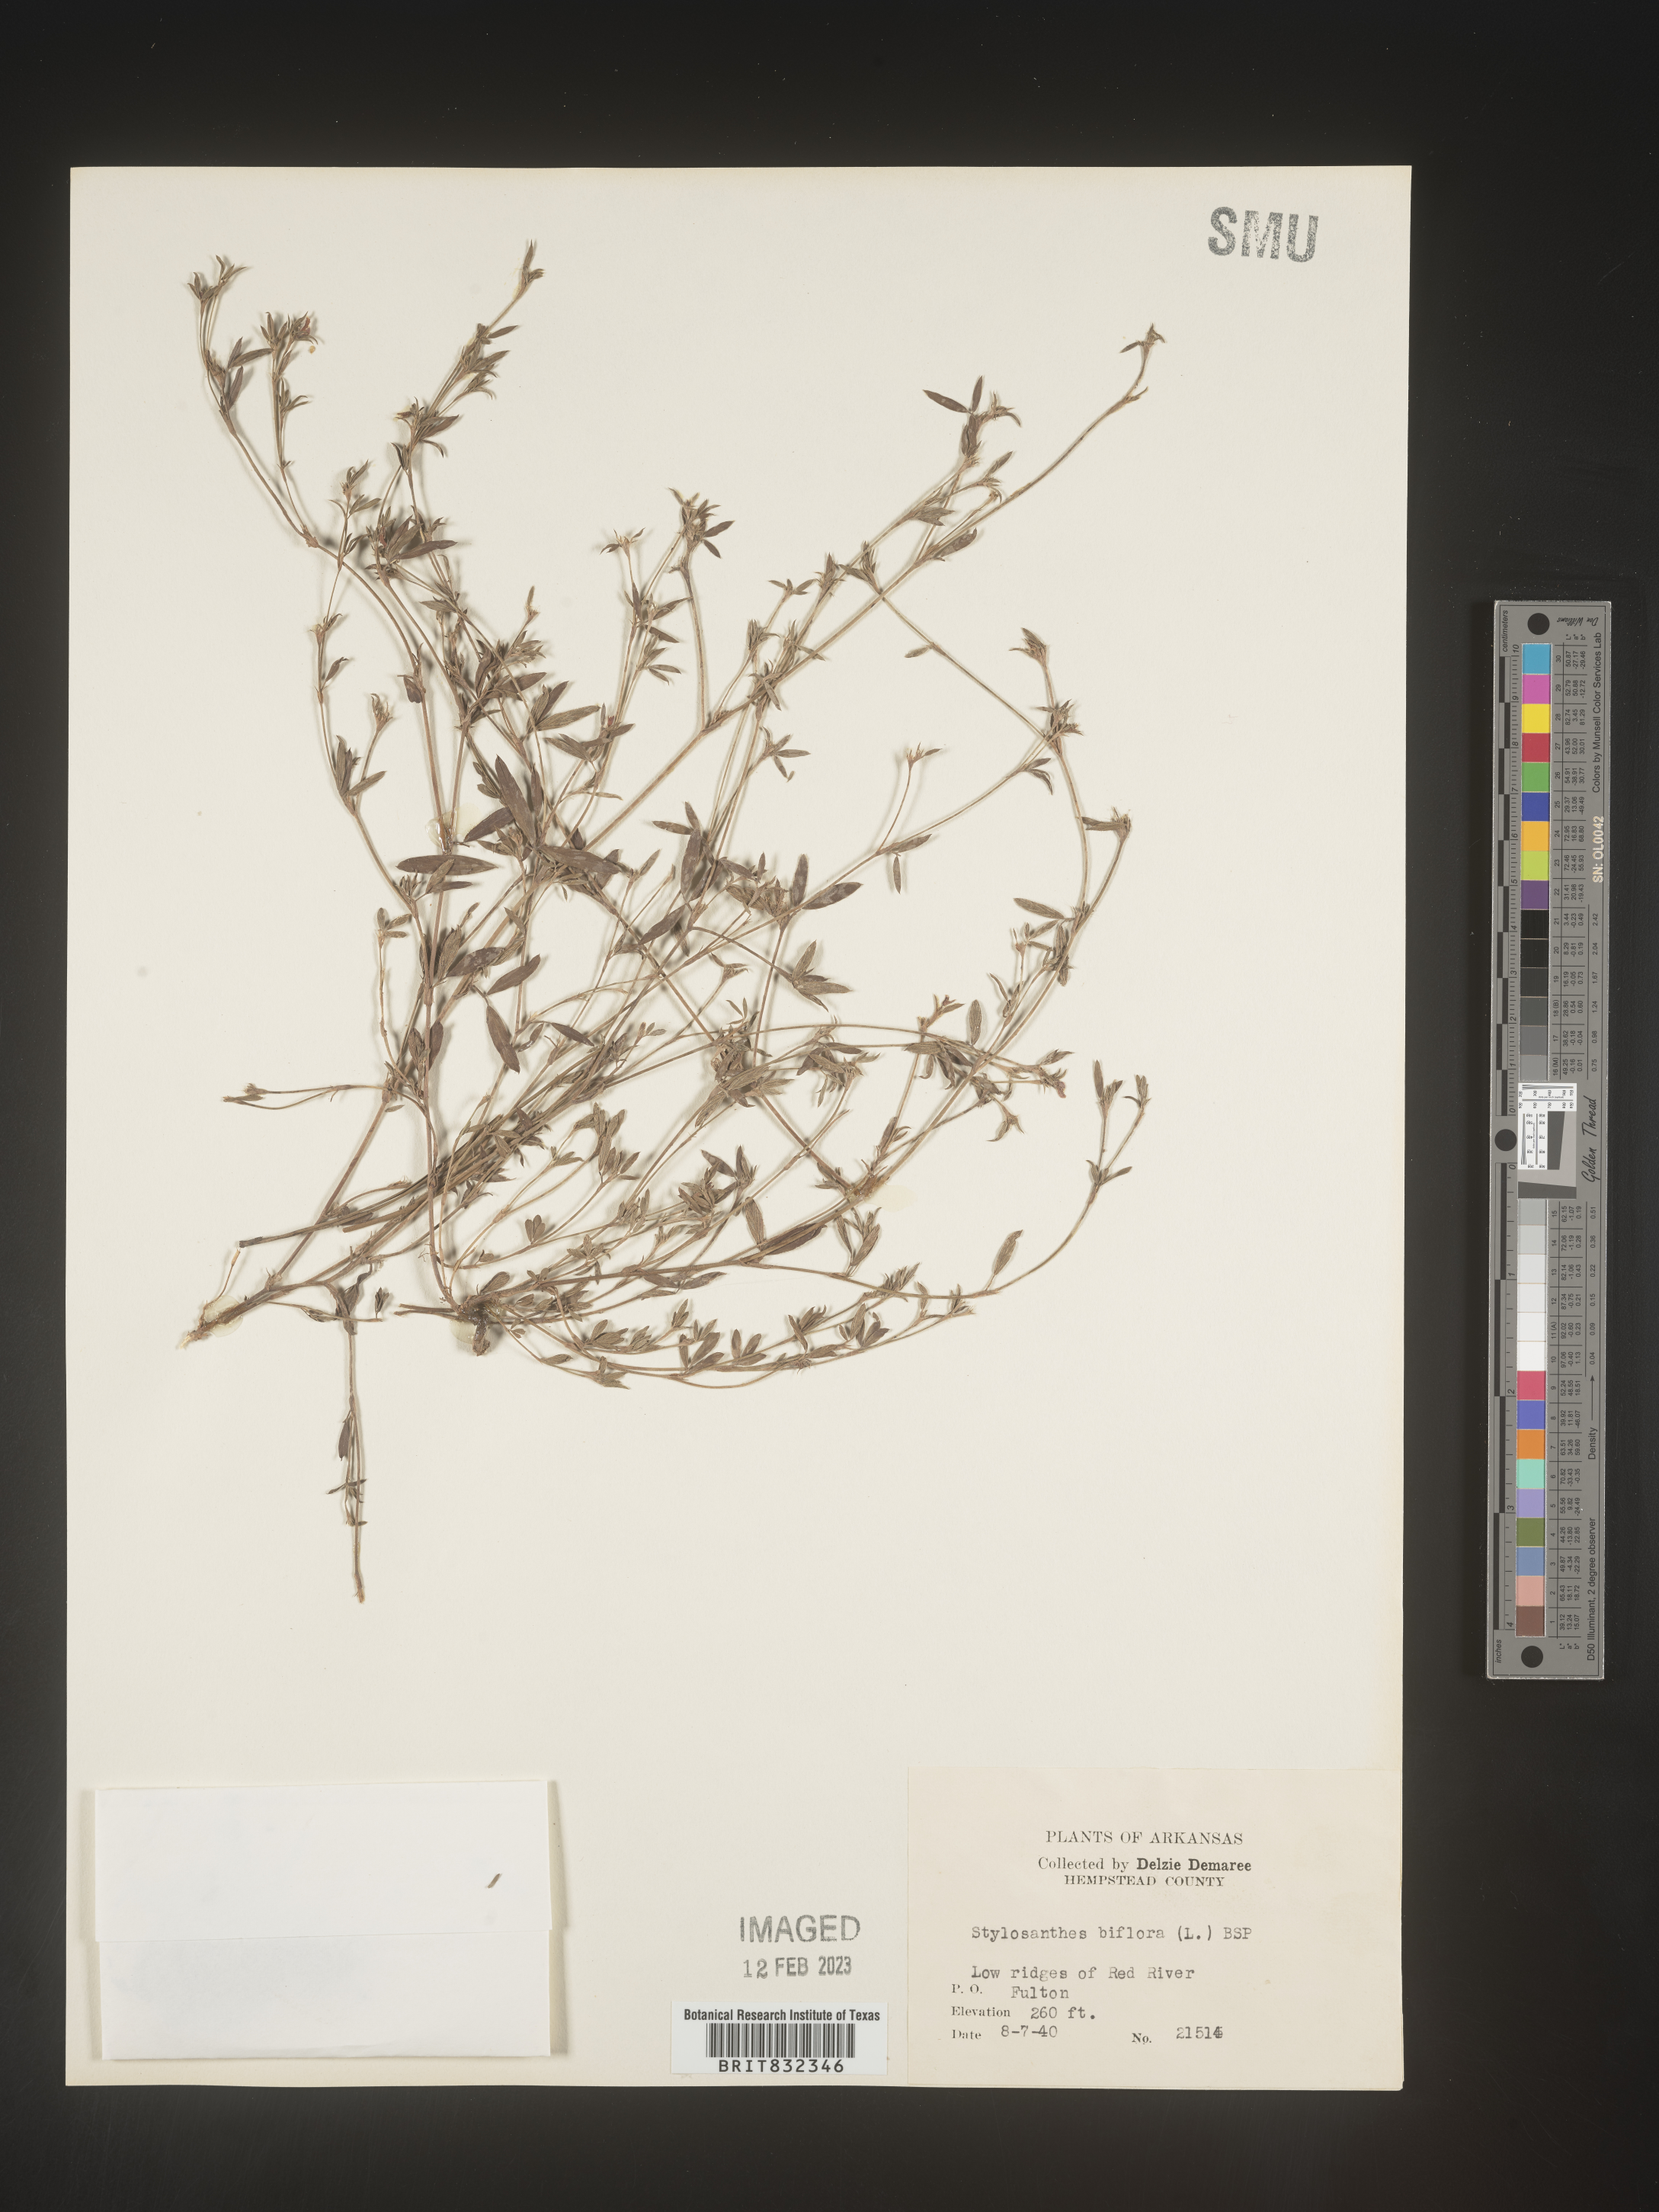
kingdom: Plantae
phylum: Tracheophyta
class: Magnoliopsida
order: Fabales
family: Fabaceae
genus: Stylosanthes
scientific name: Stylosanthes biflora
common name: Two-flower pencil-flower
